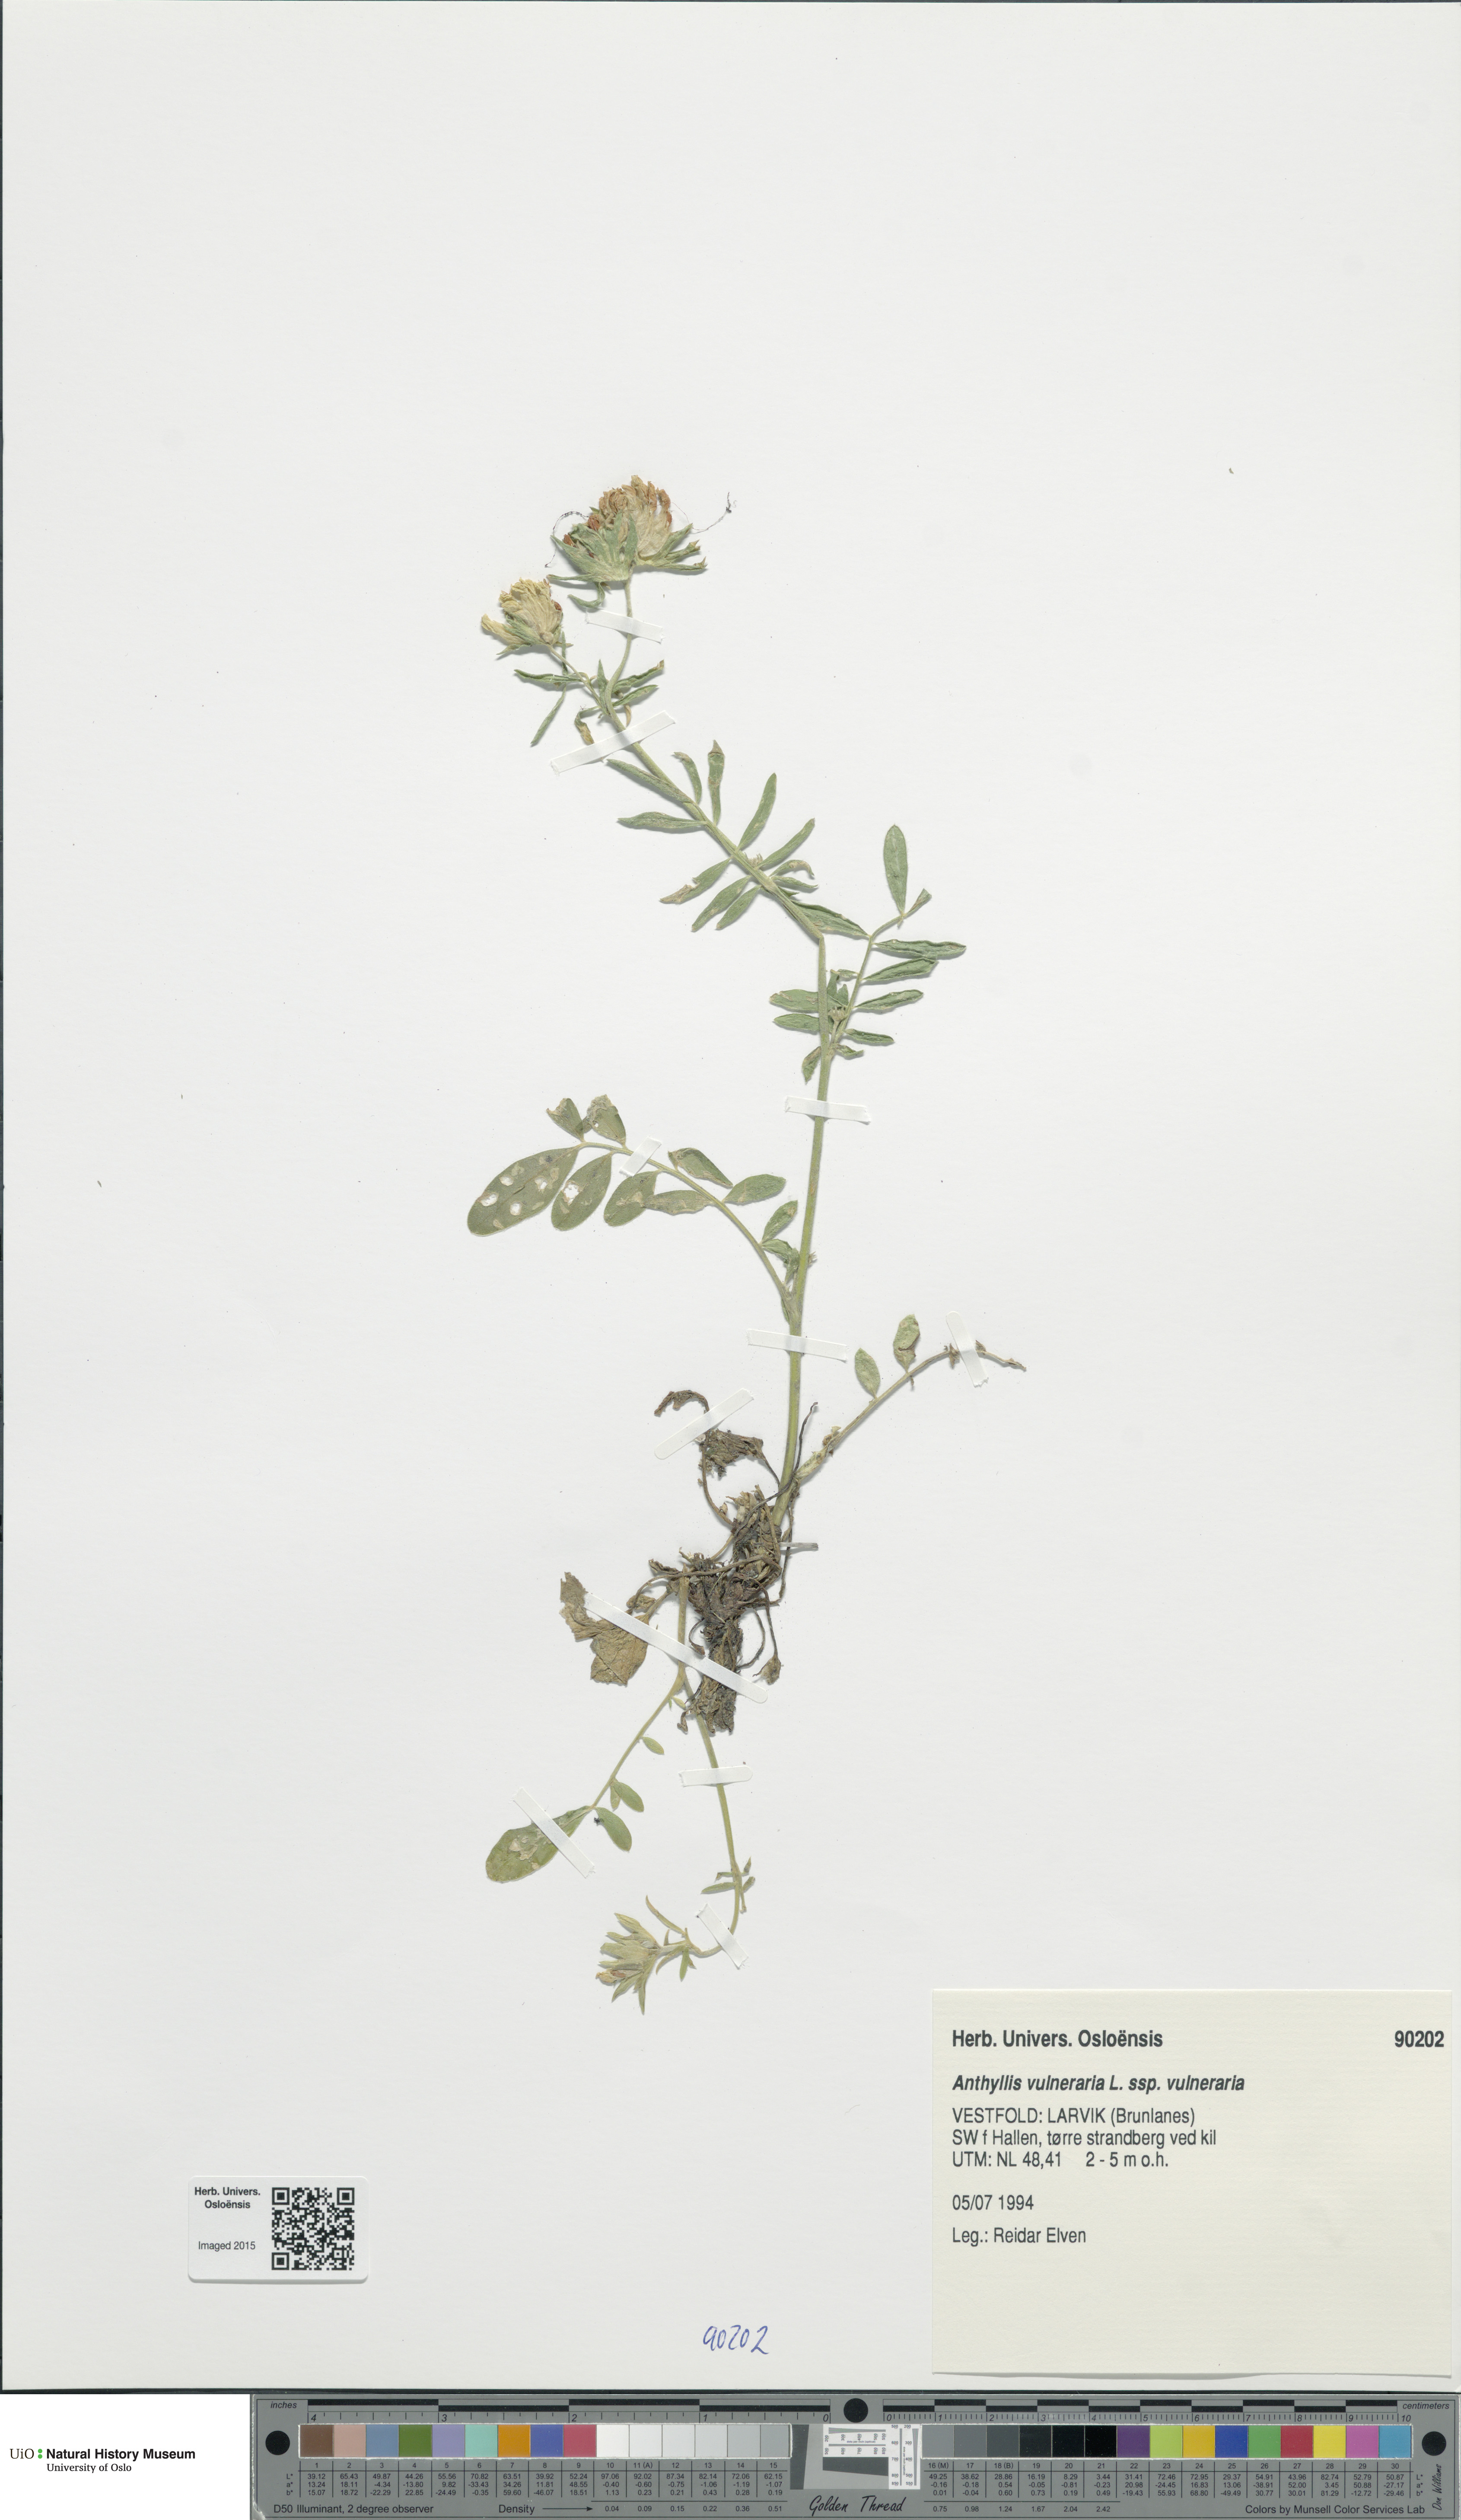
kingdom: Plantae
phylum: Tracheophyta
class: Magnoliopsida
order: Fabales
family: Fabaceae
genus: Anthyllis
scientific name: Anthyllis vulneraria
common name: Kidney vetch
